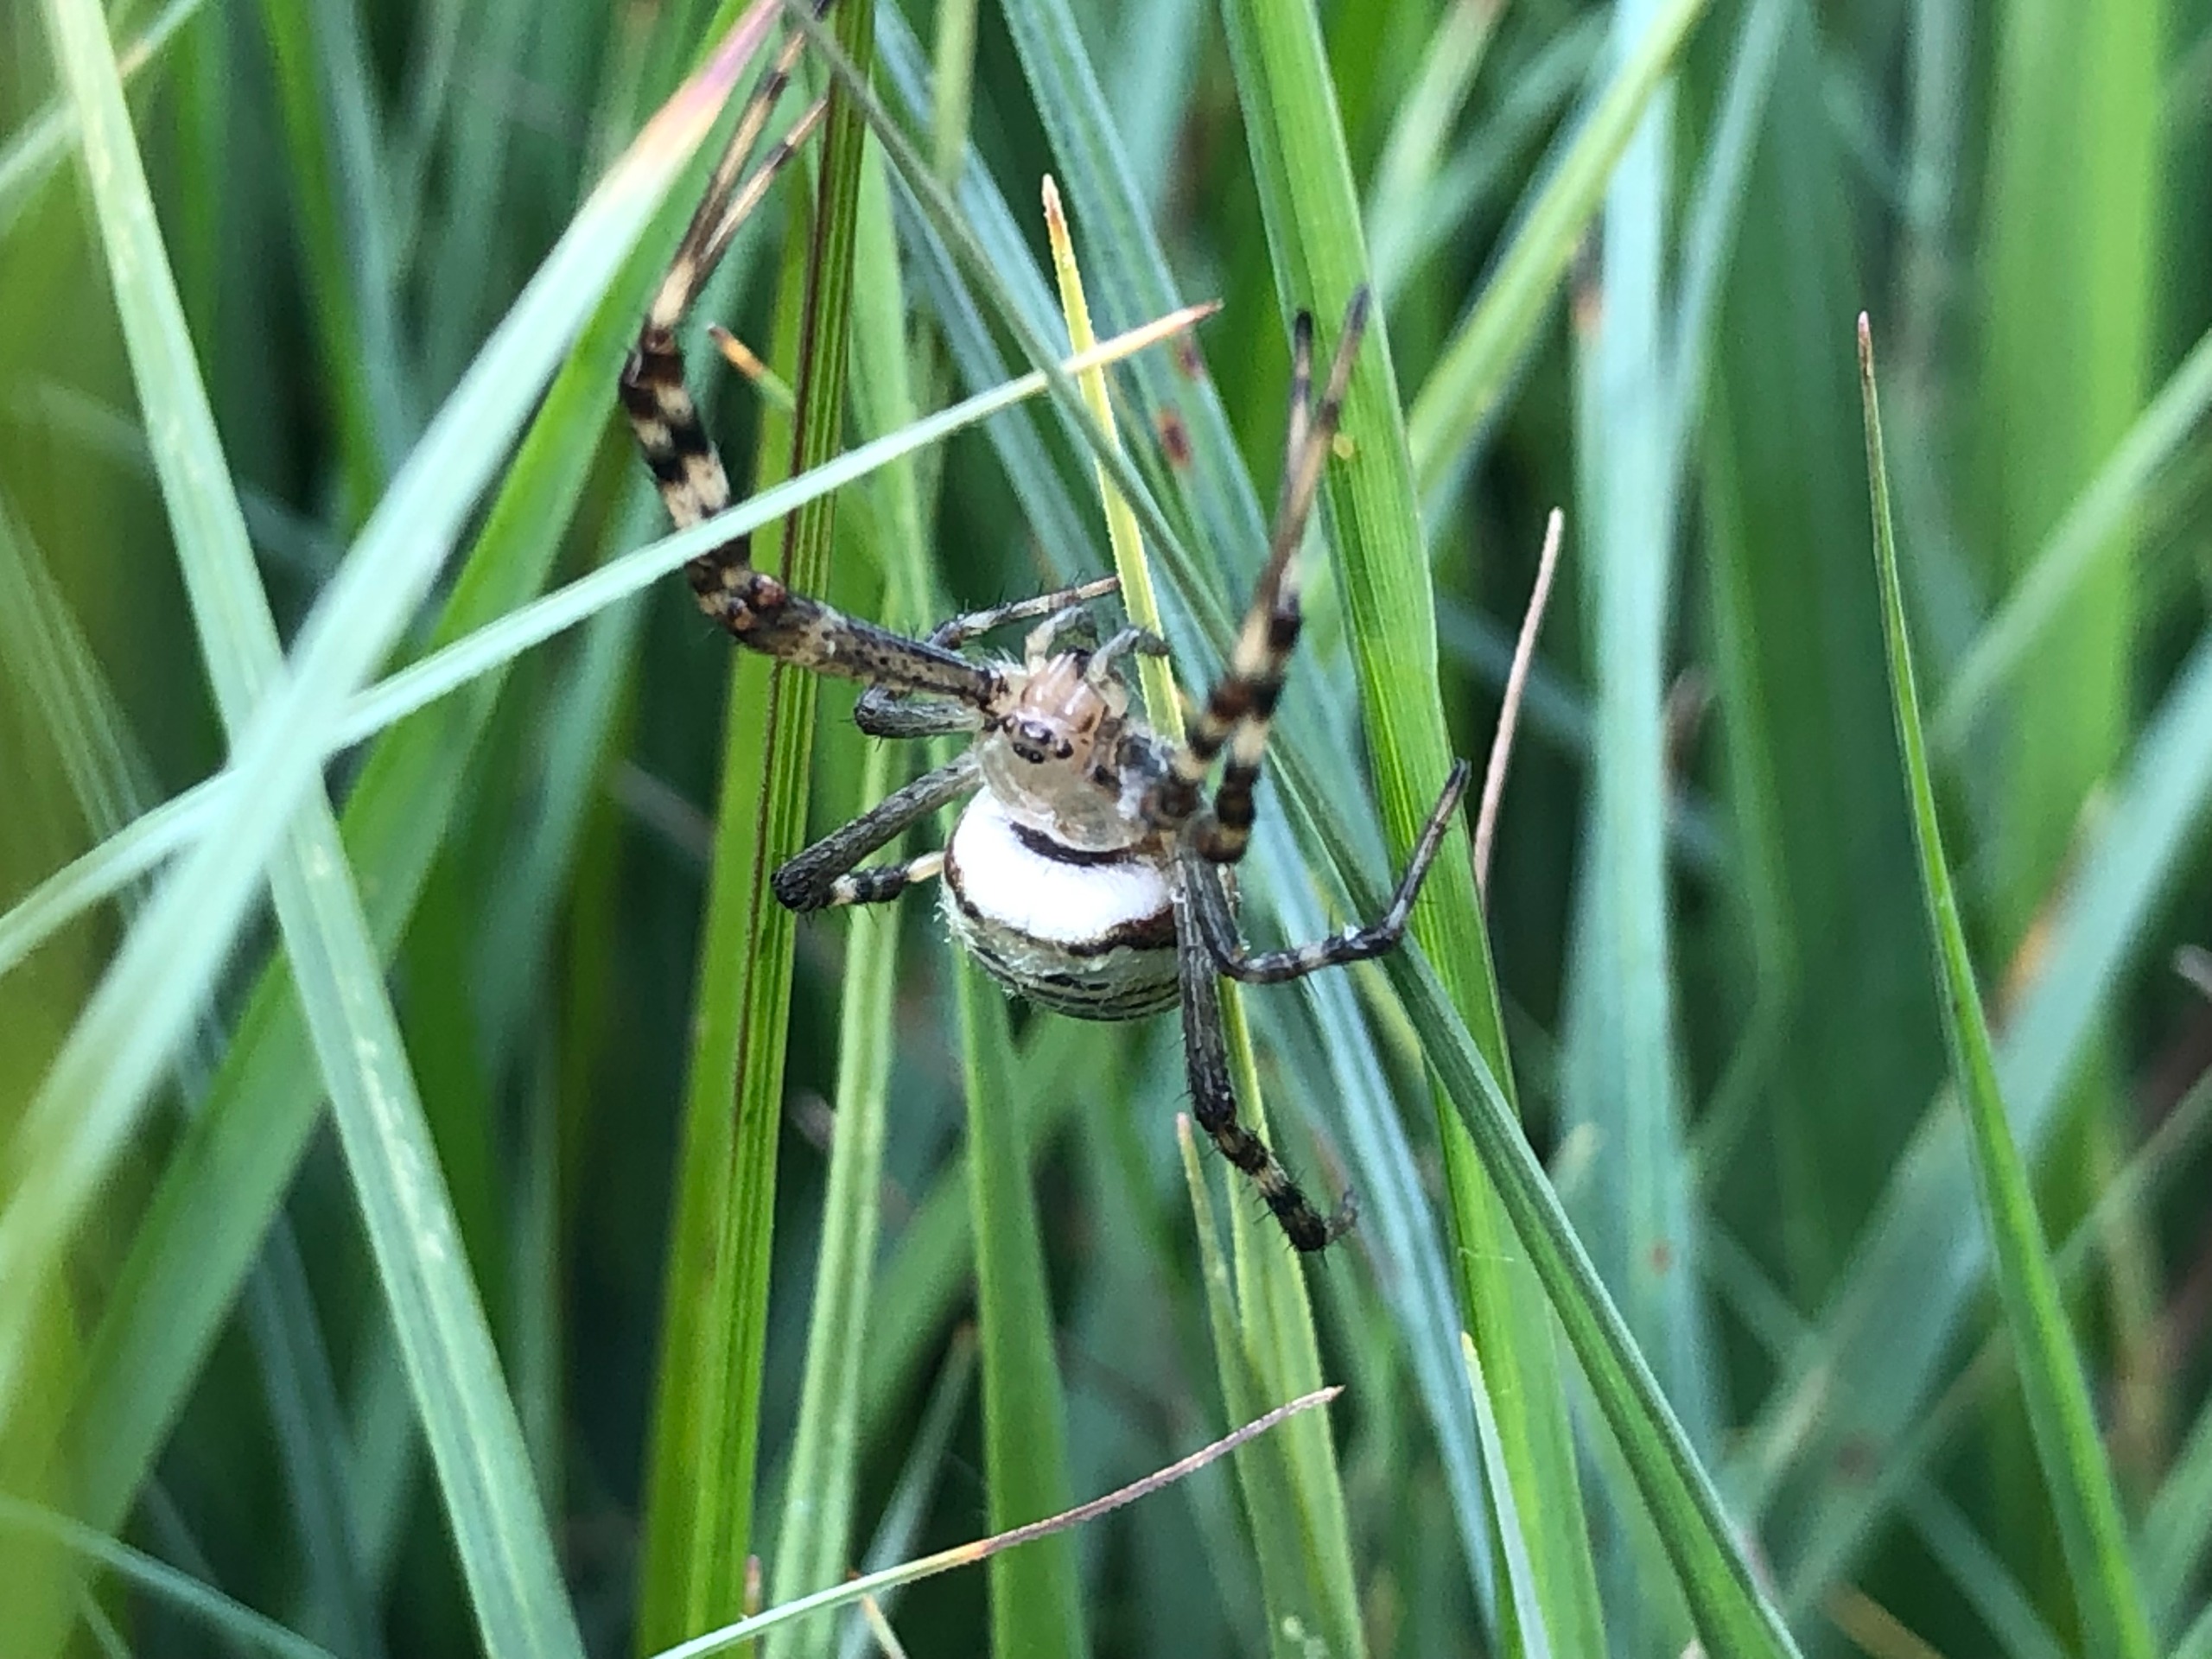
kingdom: Animalia
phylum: Arthropoda
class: Arachnida
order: Araneae
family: Araneidae
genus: Argiope
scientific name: Argiope bruennichi
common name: Hvepseedderkop
